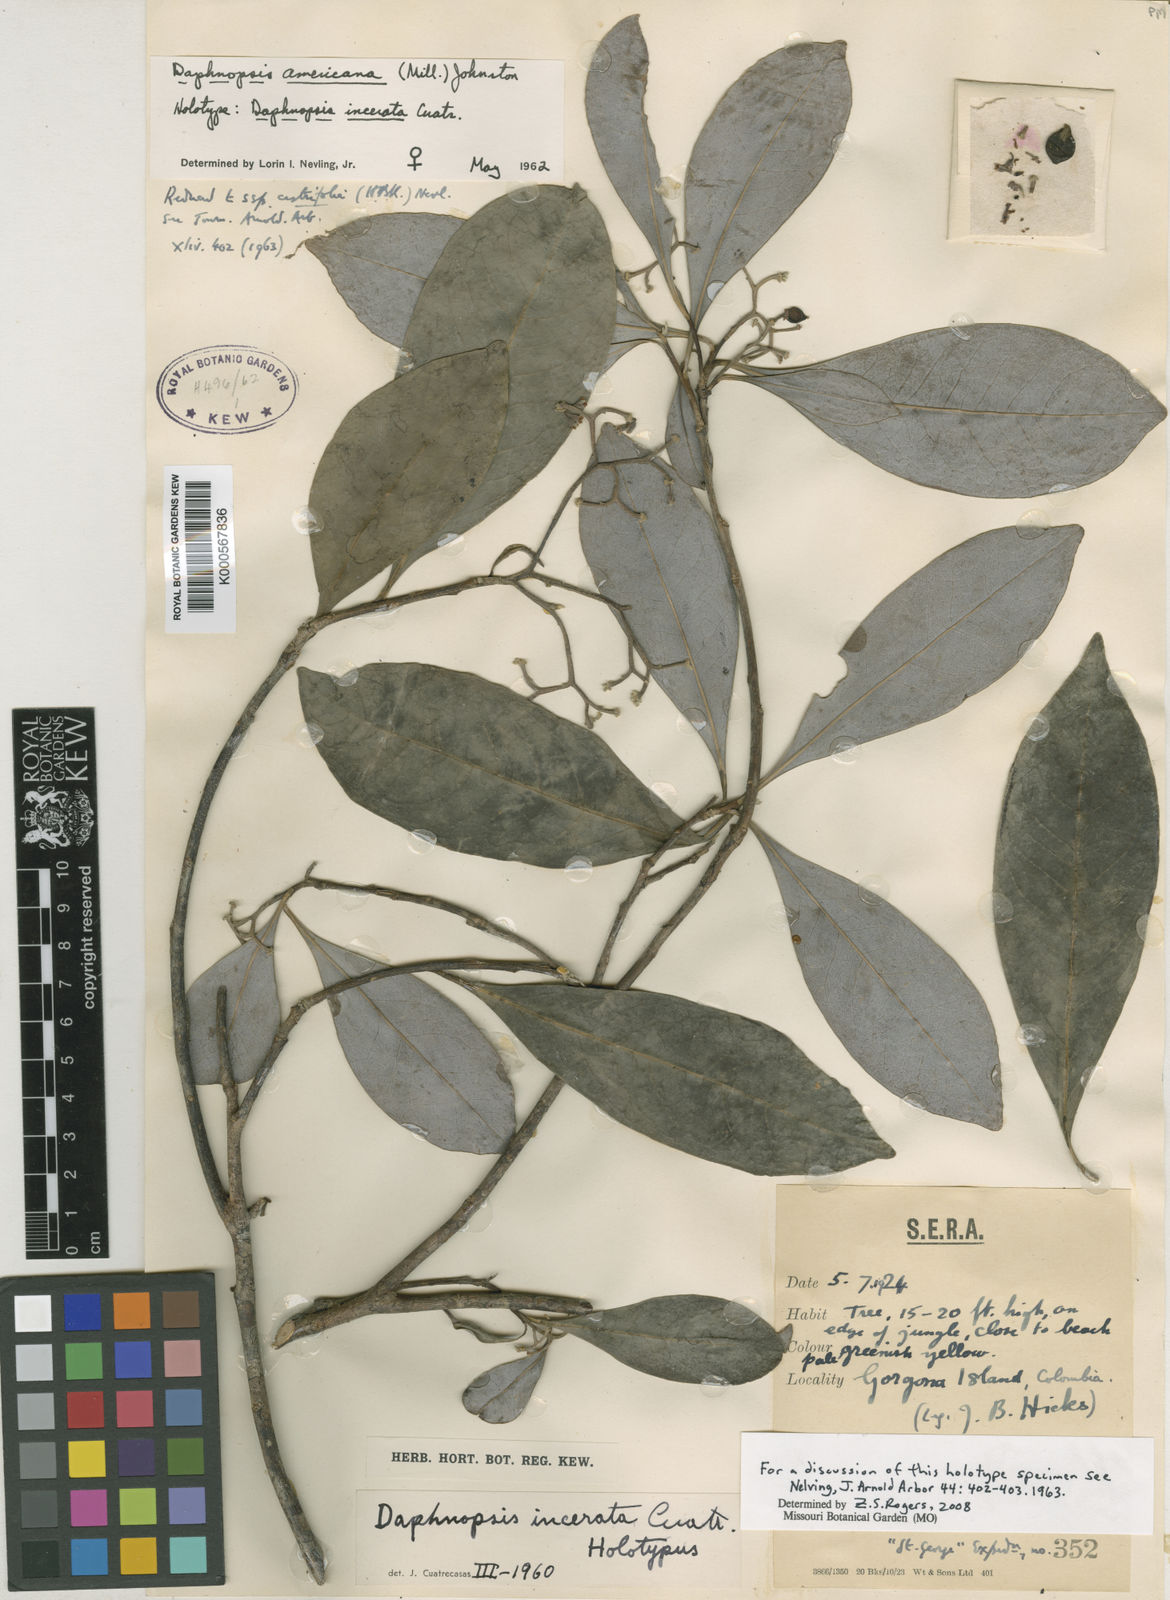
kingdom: Plantae
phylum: Tracheophyta
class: Magnoliopsida
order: Malvales
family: Thymelaeaceae
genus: Daphnopsis
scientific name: Daphnopsis americana
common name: Maho
